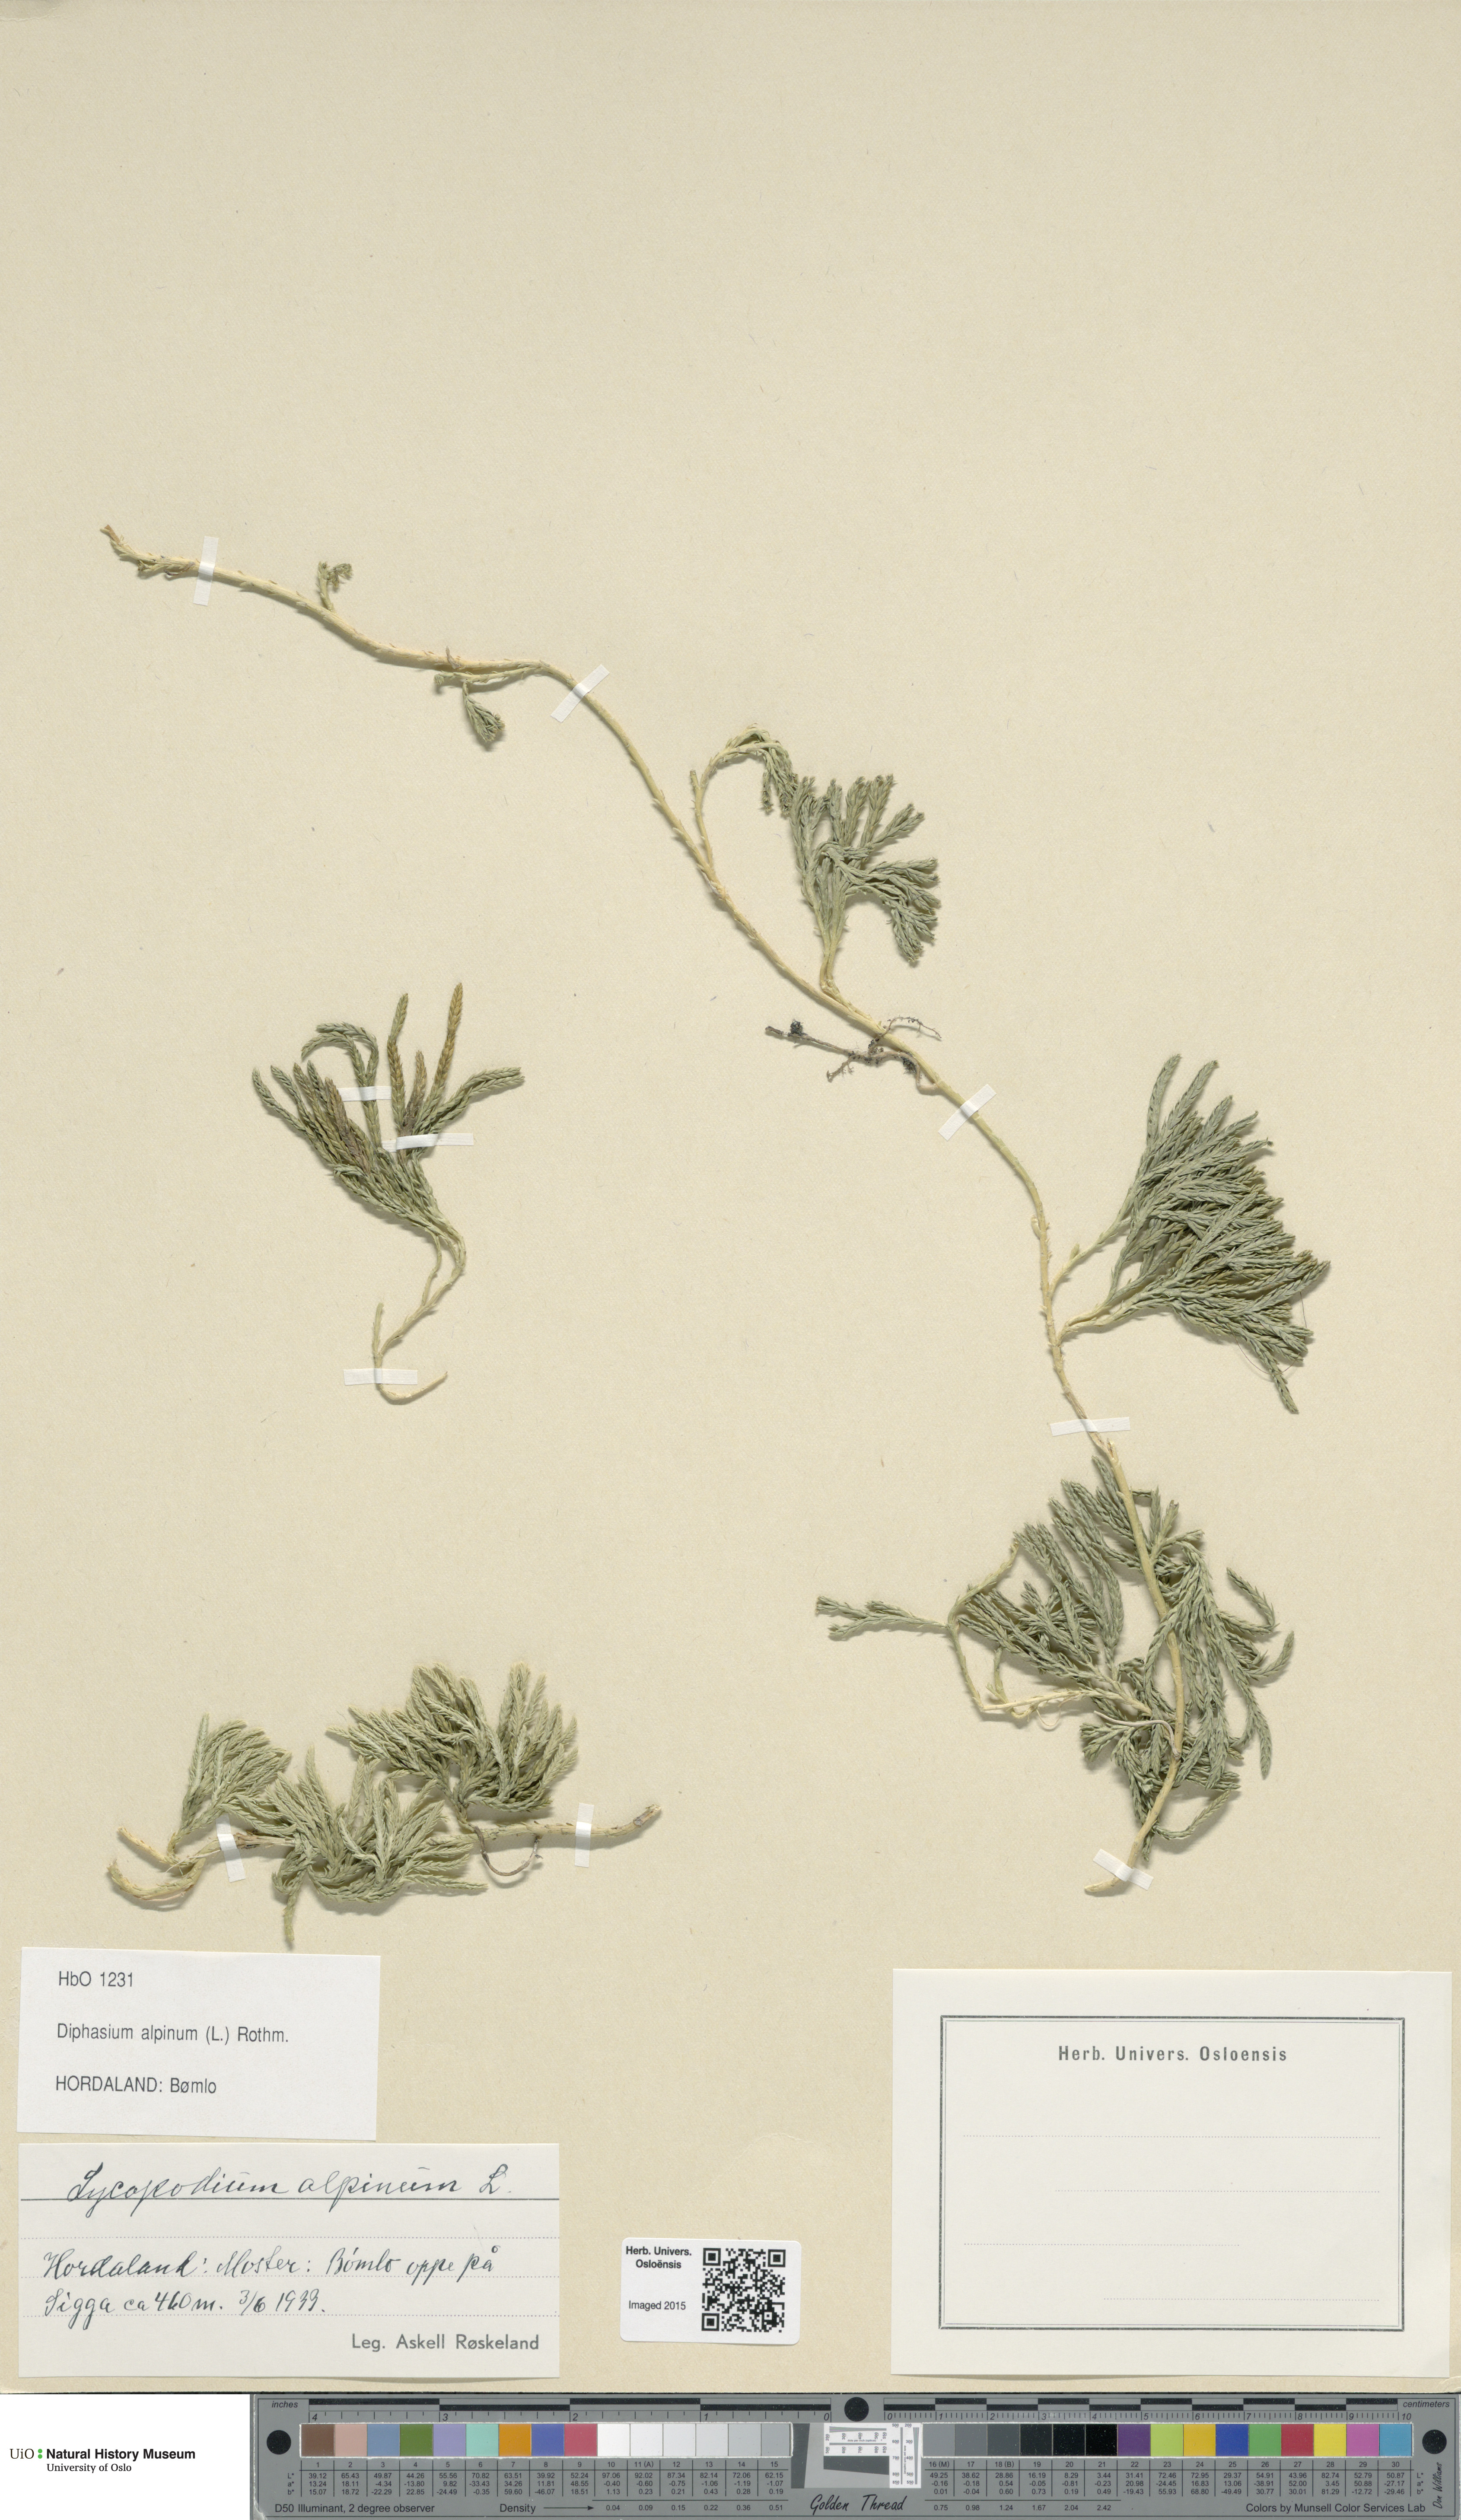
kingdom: Plantae
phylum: Tracheophyta
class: Lycopodiopsida
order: Lycopodiales
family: Lycopodiaceae
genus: Diphasiastrum
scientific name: Diphasiastrum alpinum
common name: Alpine clubmoss
